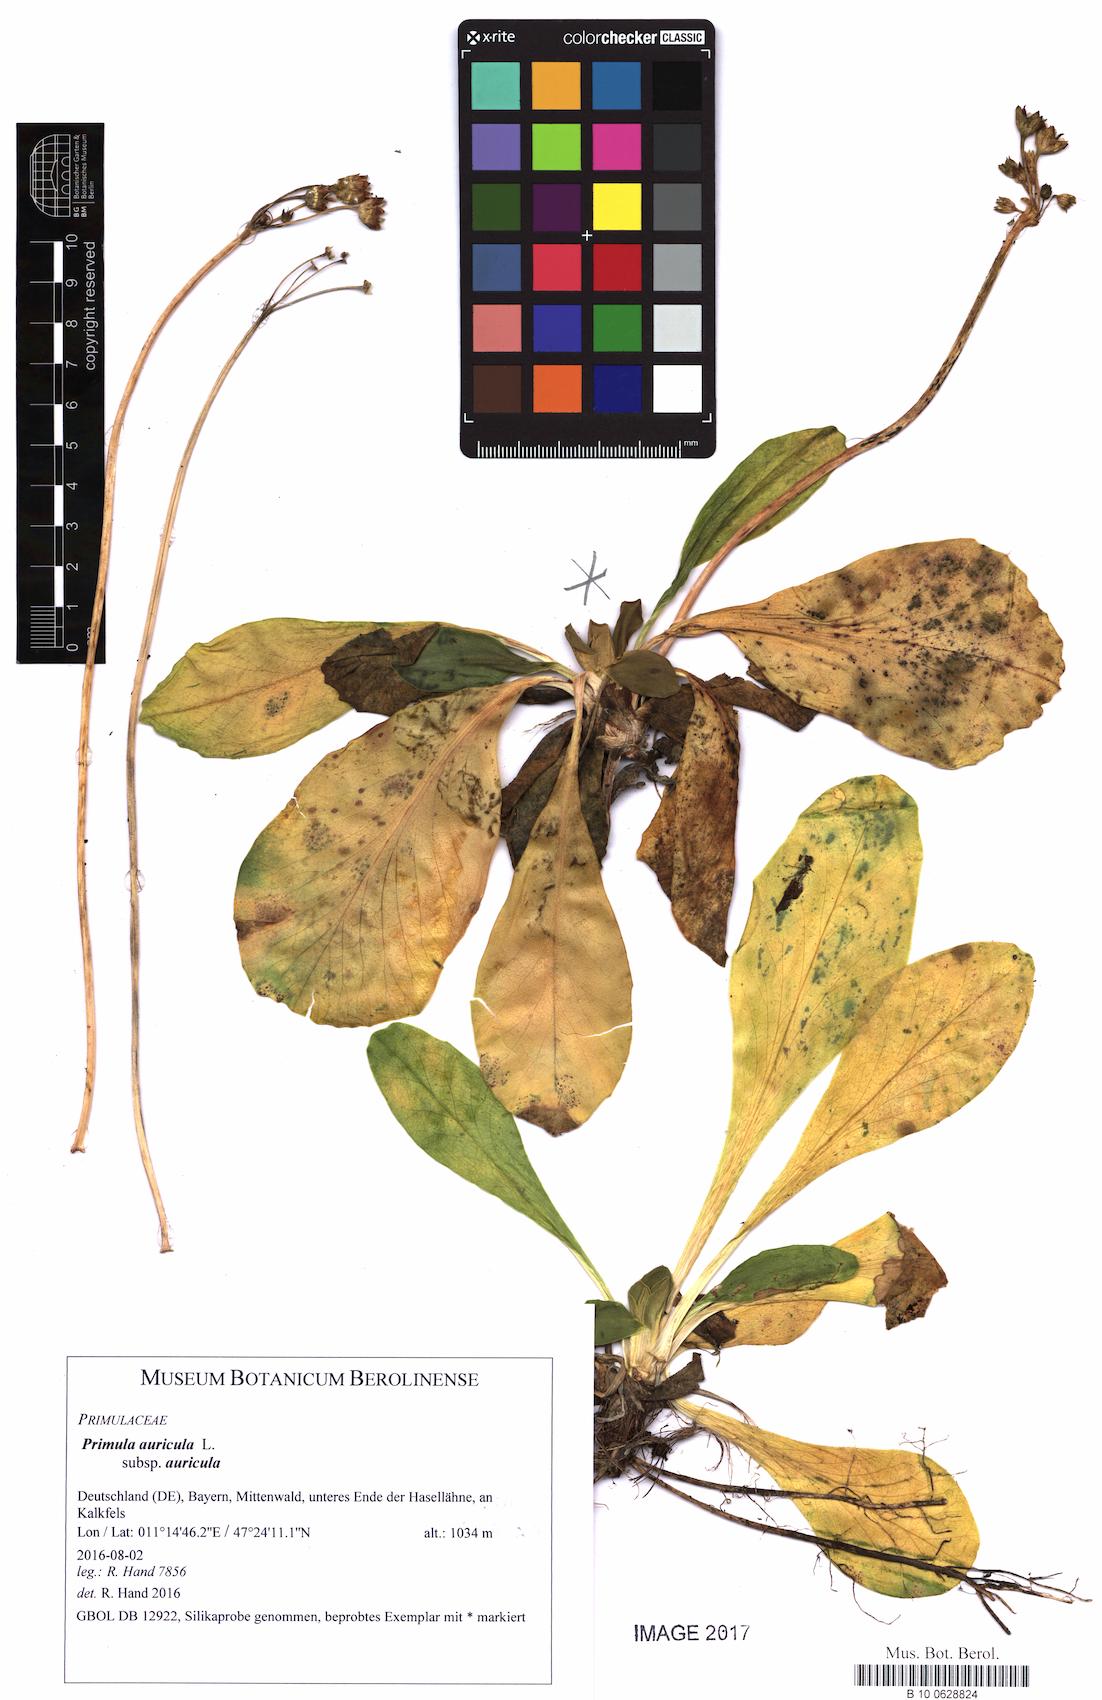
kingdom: Plantae
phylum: Tracheophyta
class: Magnoliopsida
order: Ericales
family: Primulaceae
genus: Primula
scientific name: Primula auricula
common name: Auricula
